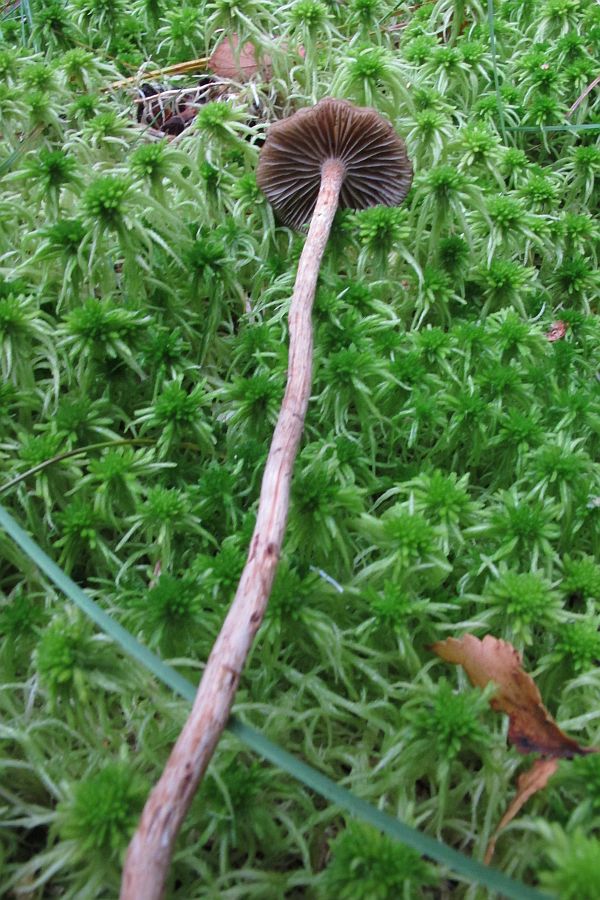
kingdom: Fungi
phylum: Basidiomycota
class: Agaricomycetes
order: Agaricales
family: Strophariaceae
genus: Hypholoma
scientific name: Hypholoma myosotis
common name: slimet svovlhat
